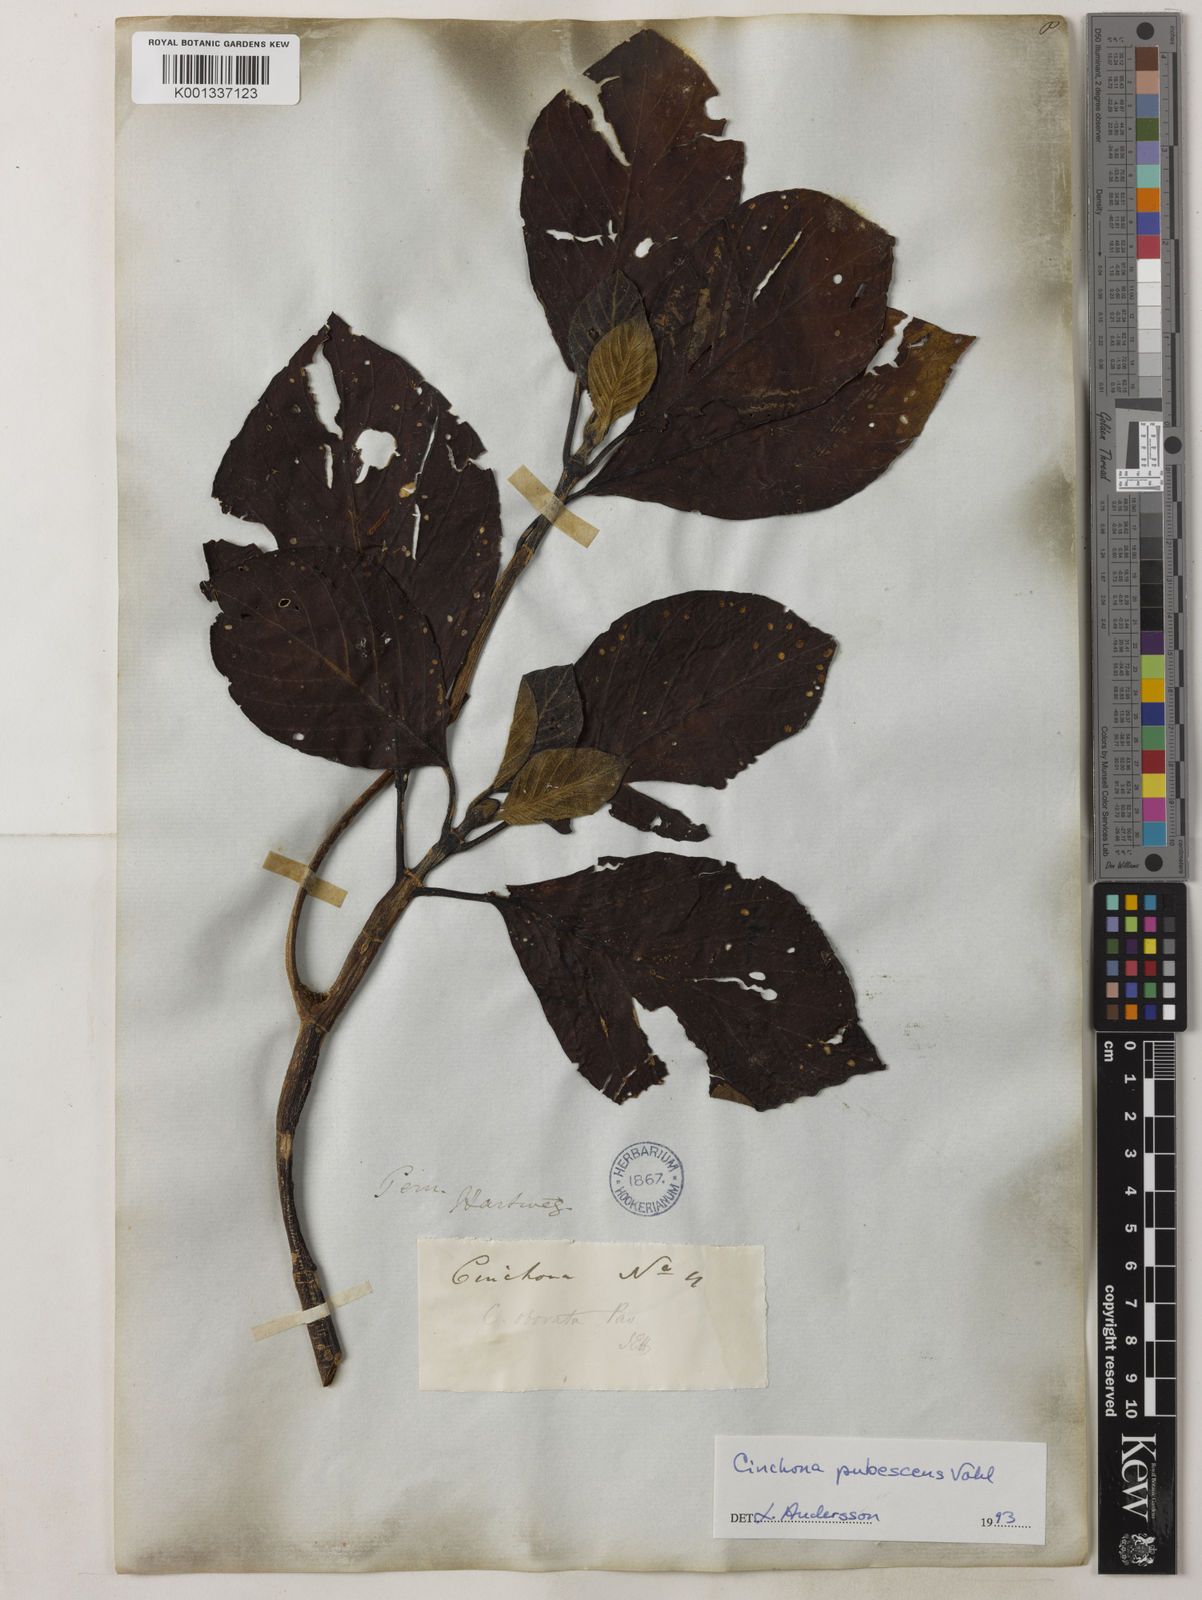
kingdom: Plantae
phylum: Tracheophyta
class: Magnoliopsida
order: Gentianales
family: Rubiaceae
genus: Cinchona
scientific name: Cinchona pubescens
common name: Quinine
